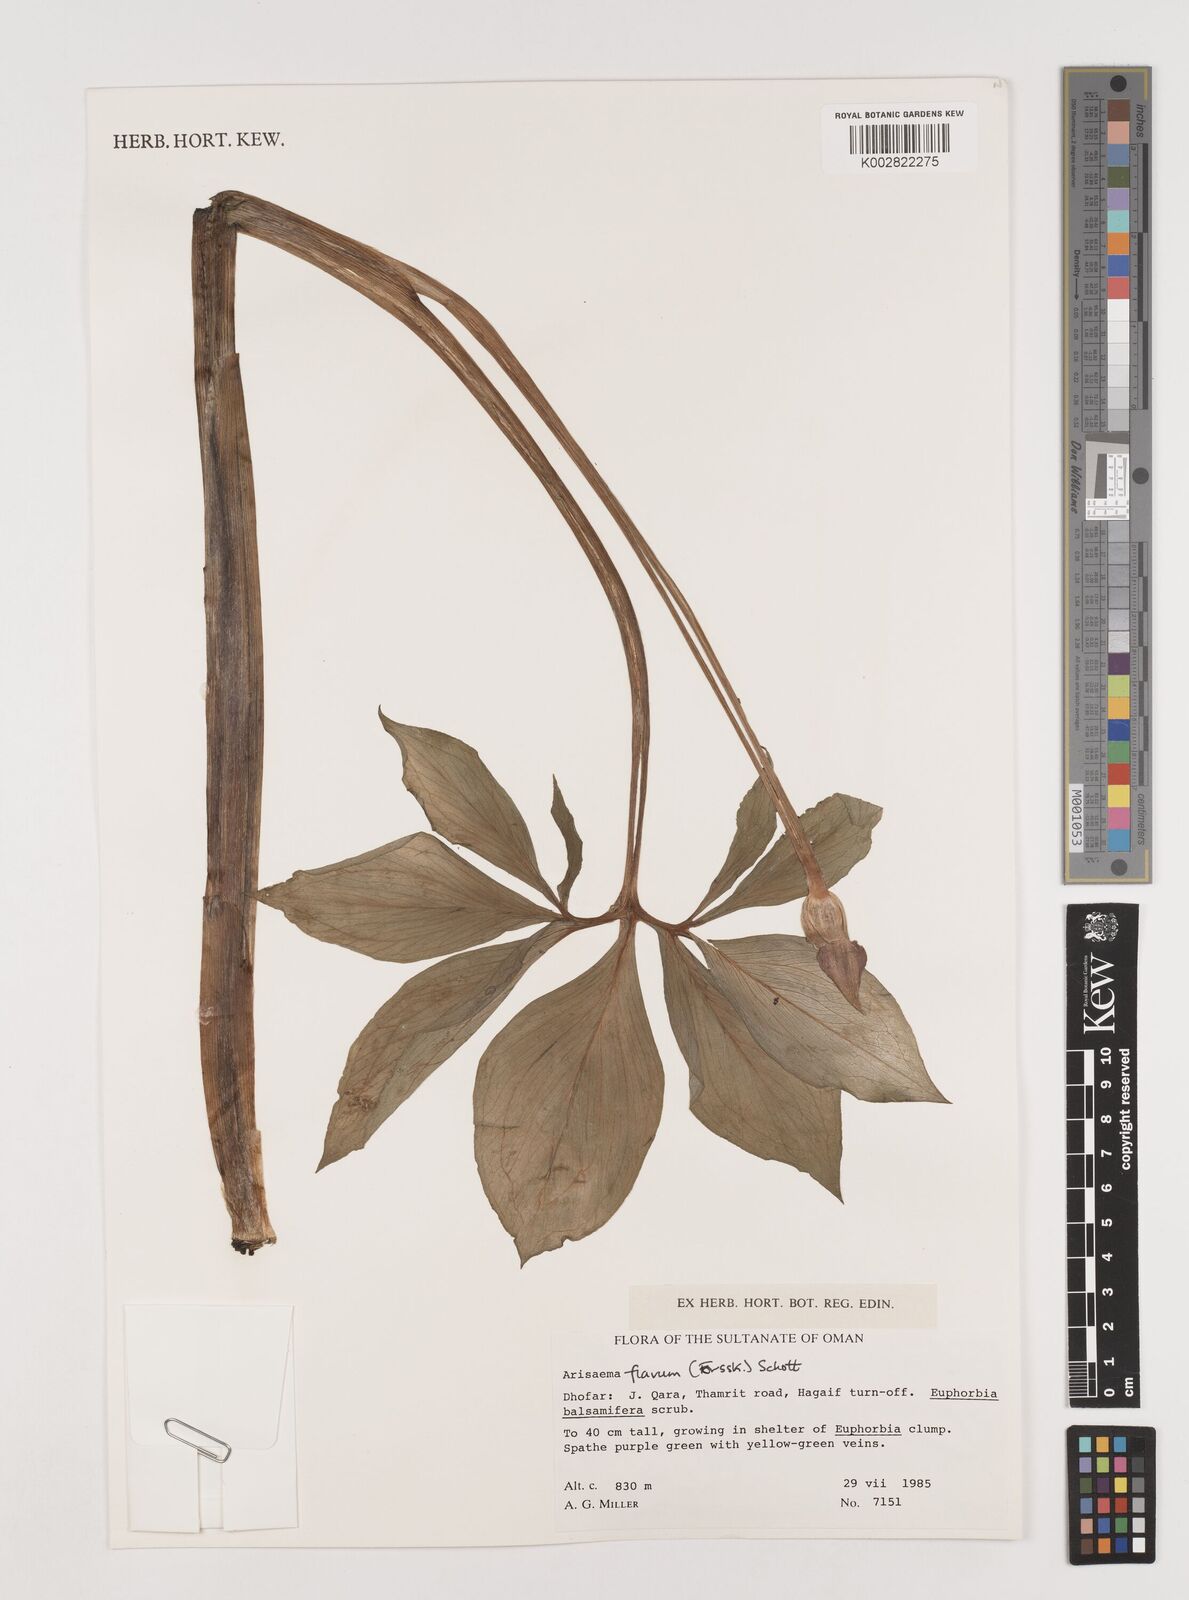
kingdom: Plantae
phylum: Tracheophyta
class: Liliopsida
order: Alismatales
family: Araceae
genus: Arisaema
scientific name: Arisaema flavum
